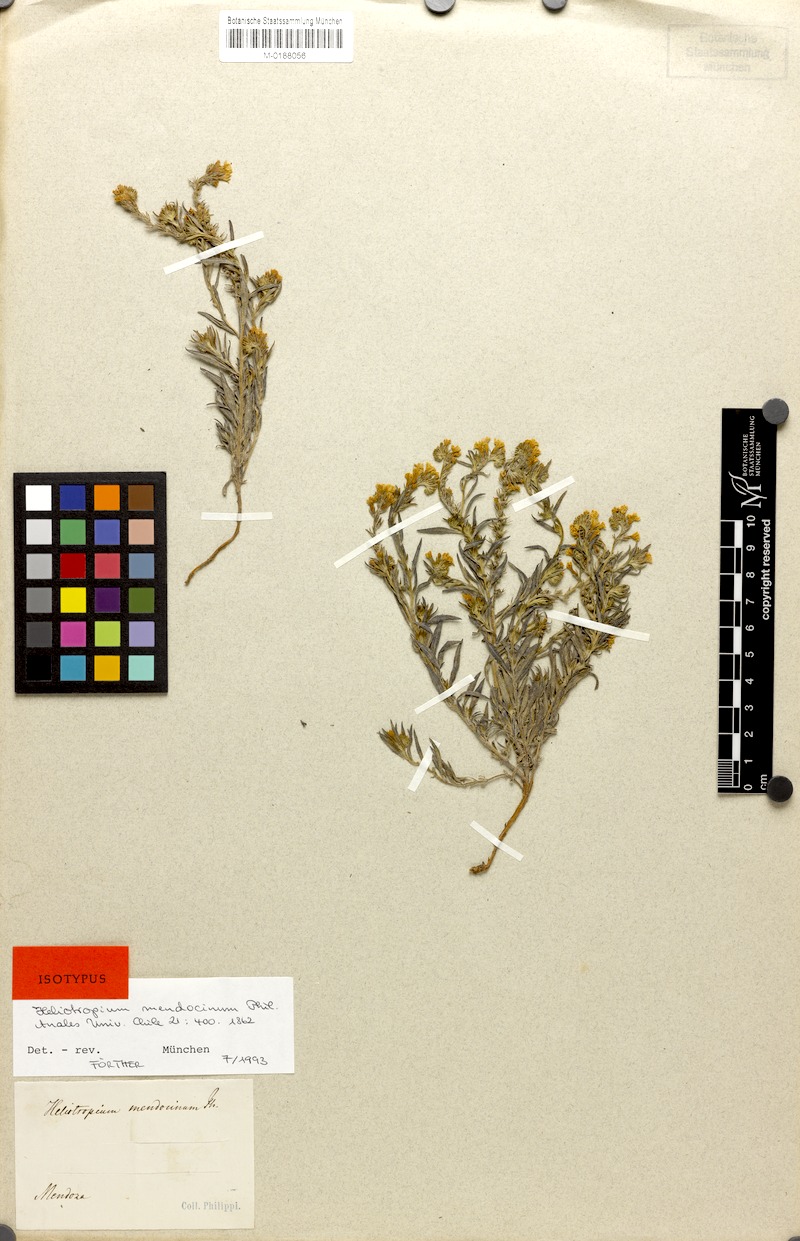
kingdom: Plantae
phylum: Tracheophyta
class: Magnoliopsida
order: Boraginales
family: Heliotropiaceae
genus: Euploca
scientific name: Euploca mendocina
